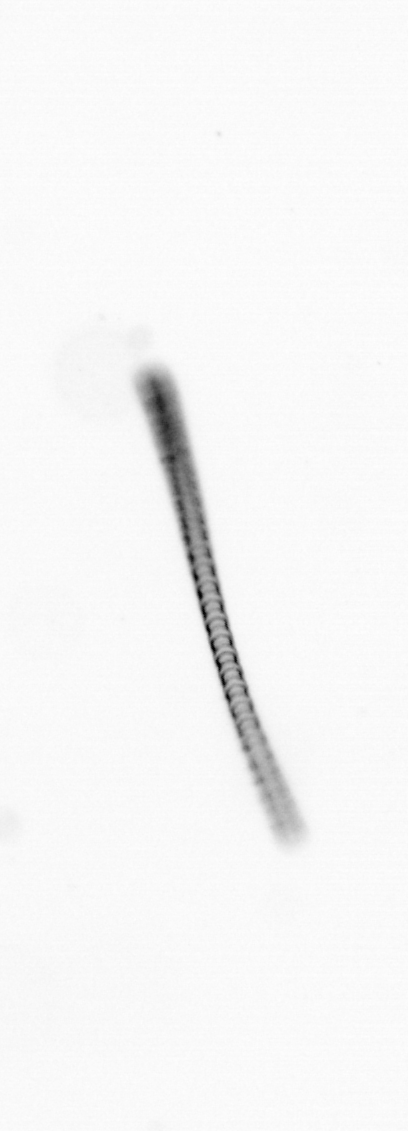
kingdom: Chromista
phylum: Ochrophyta
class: Bacillariophyceae
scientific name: Bacillariophyceae
